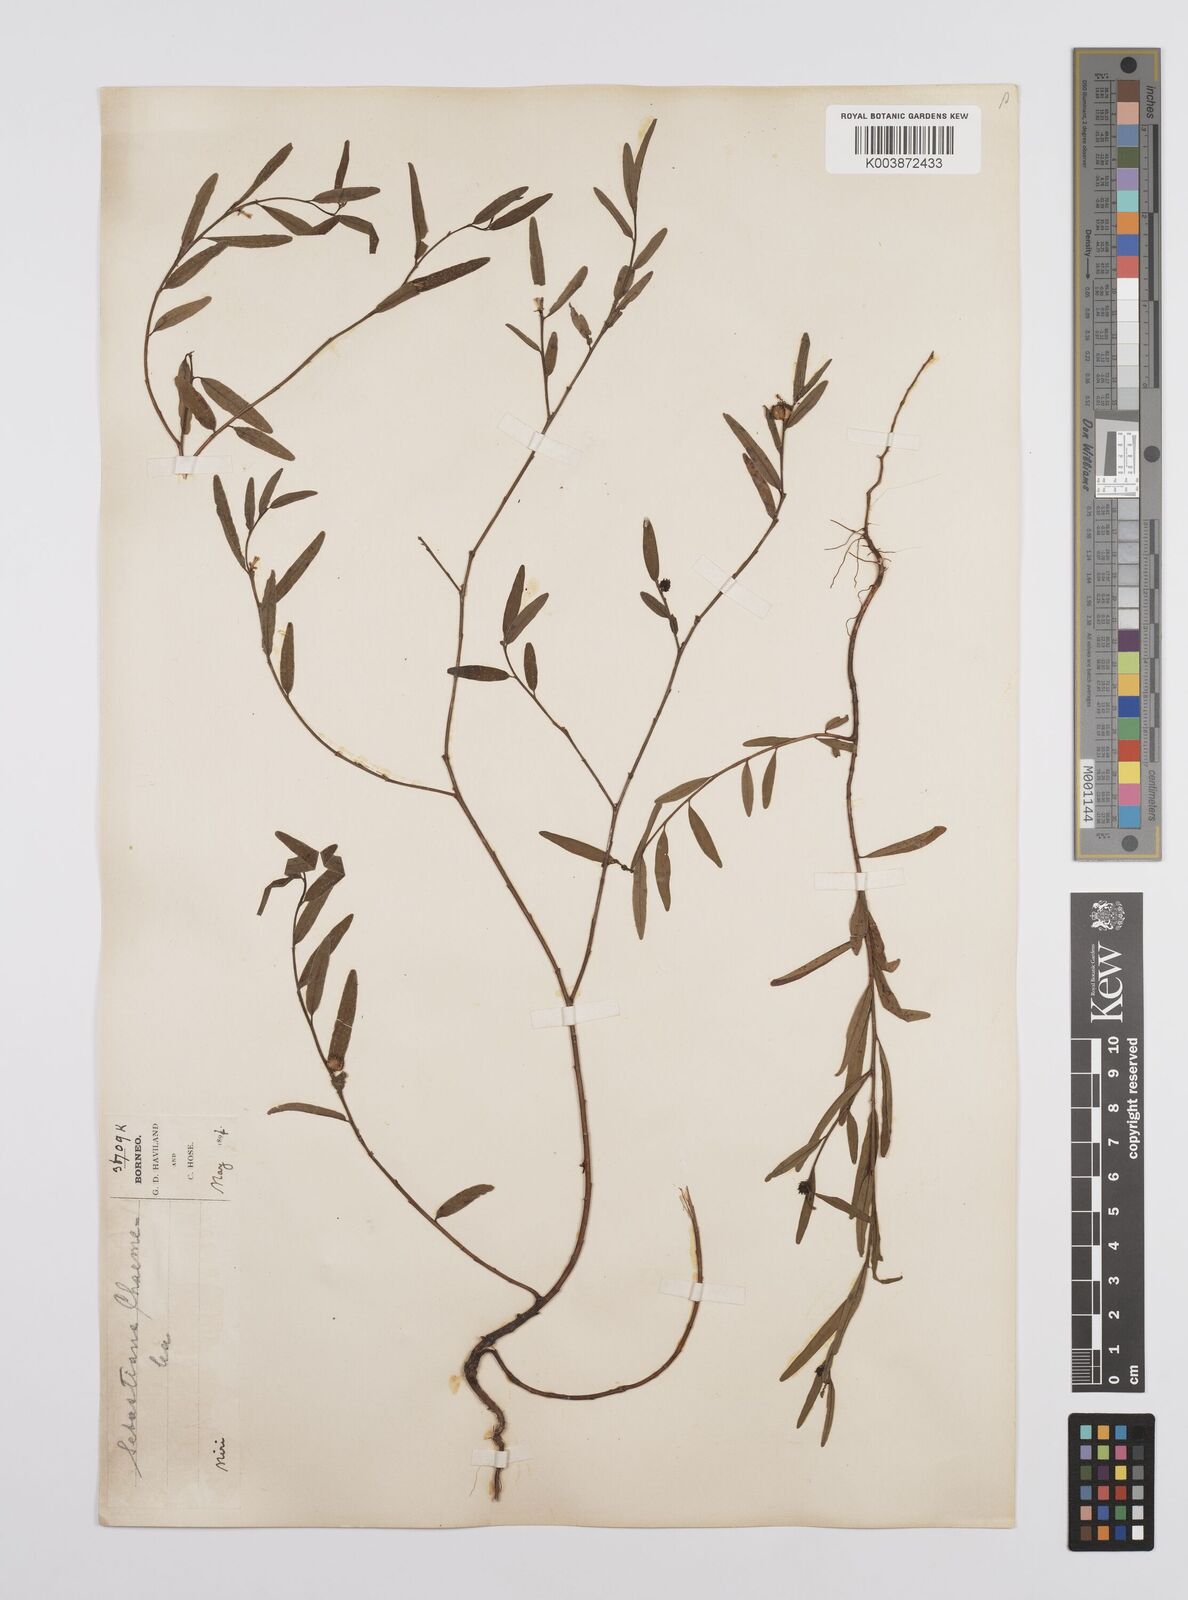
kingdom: Plantae
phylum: Tracheophyta
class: Magnoliopsida
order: Malpighiales
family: Euphorbiaceae
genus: Microstachys
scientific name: Microstachys chamaelea
